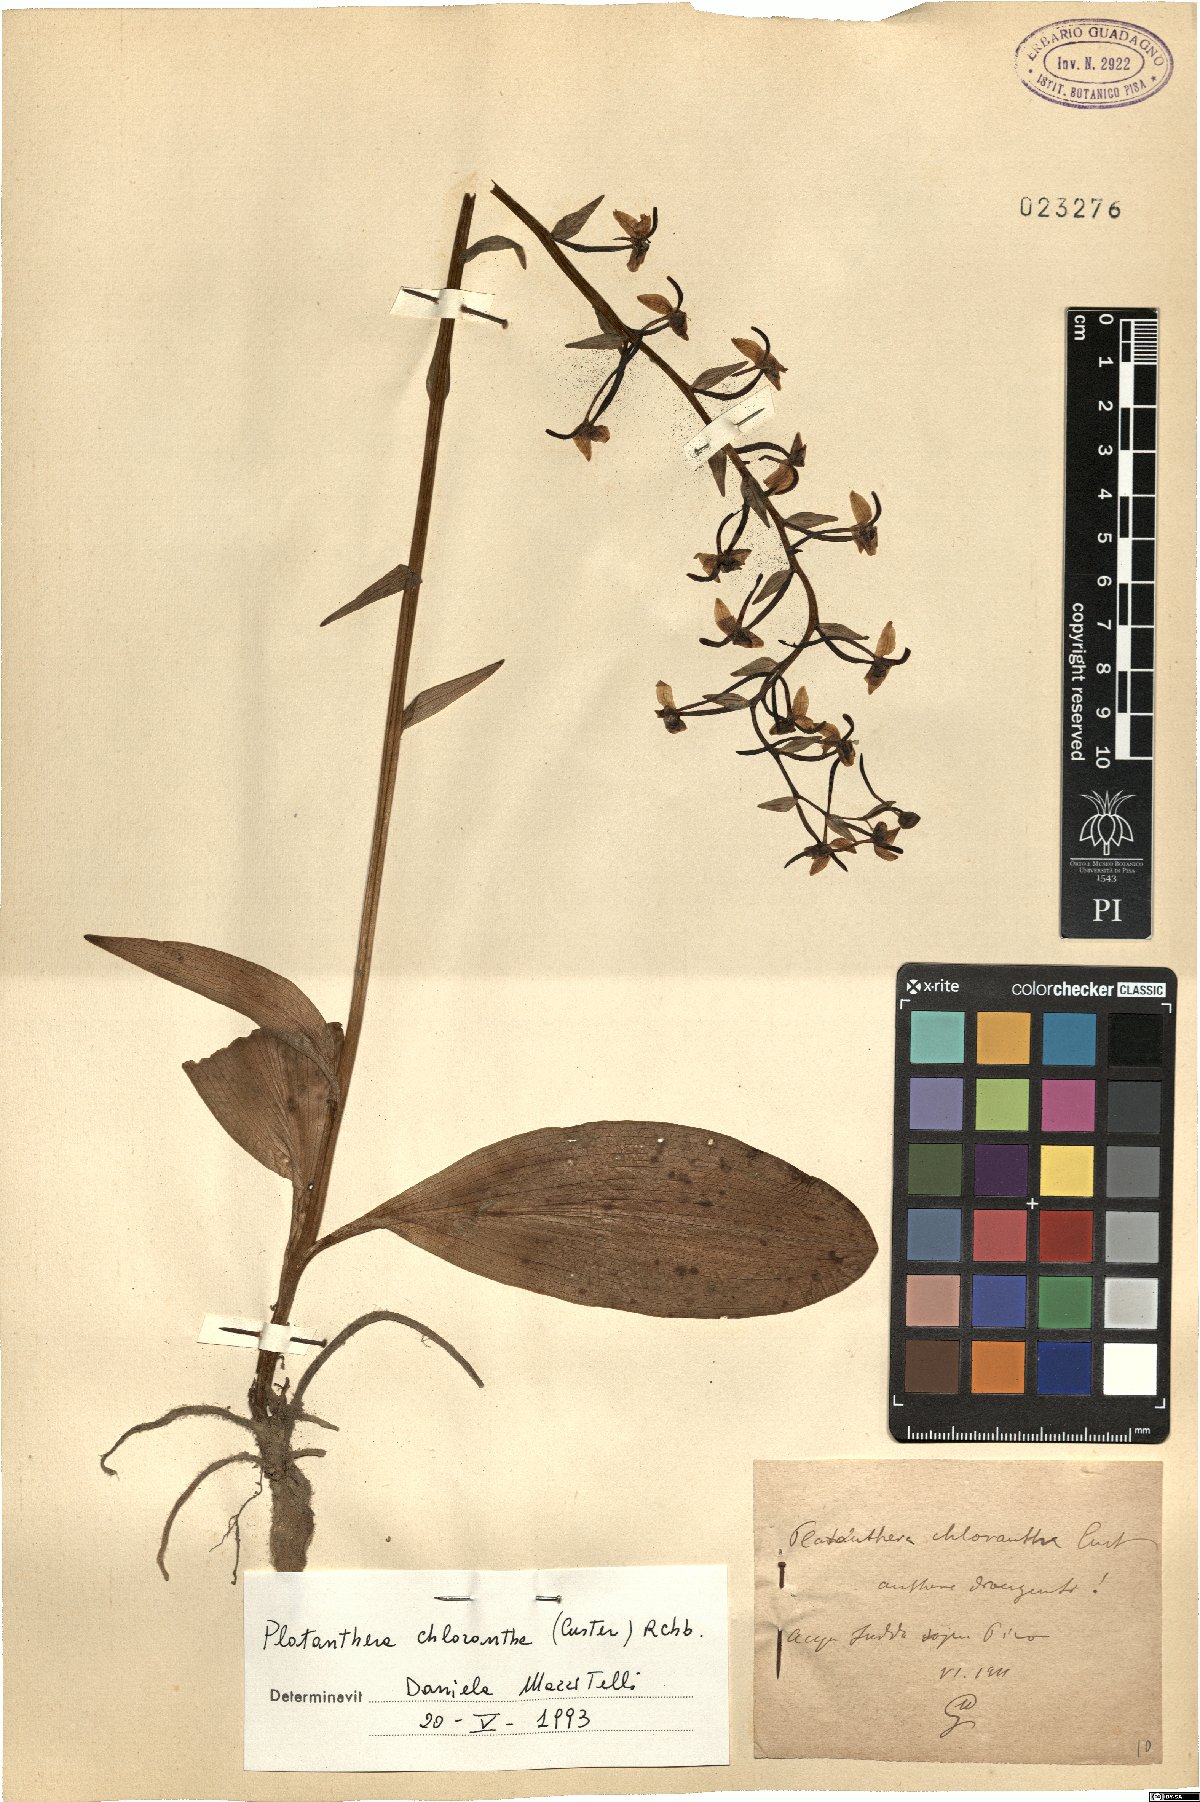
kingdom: Plantae
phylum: Tracheophyta
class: Liliopsida
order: Asparagales
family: Orchidaceae
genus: Platanthera
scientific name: Platanthera chlorantha
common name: Greater butterfly-orchid
